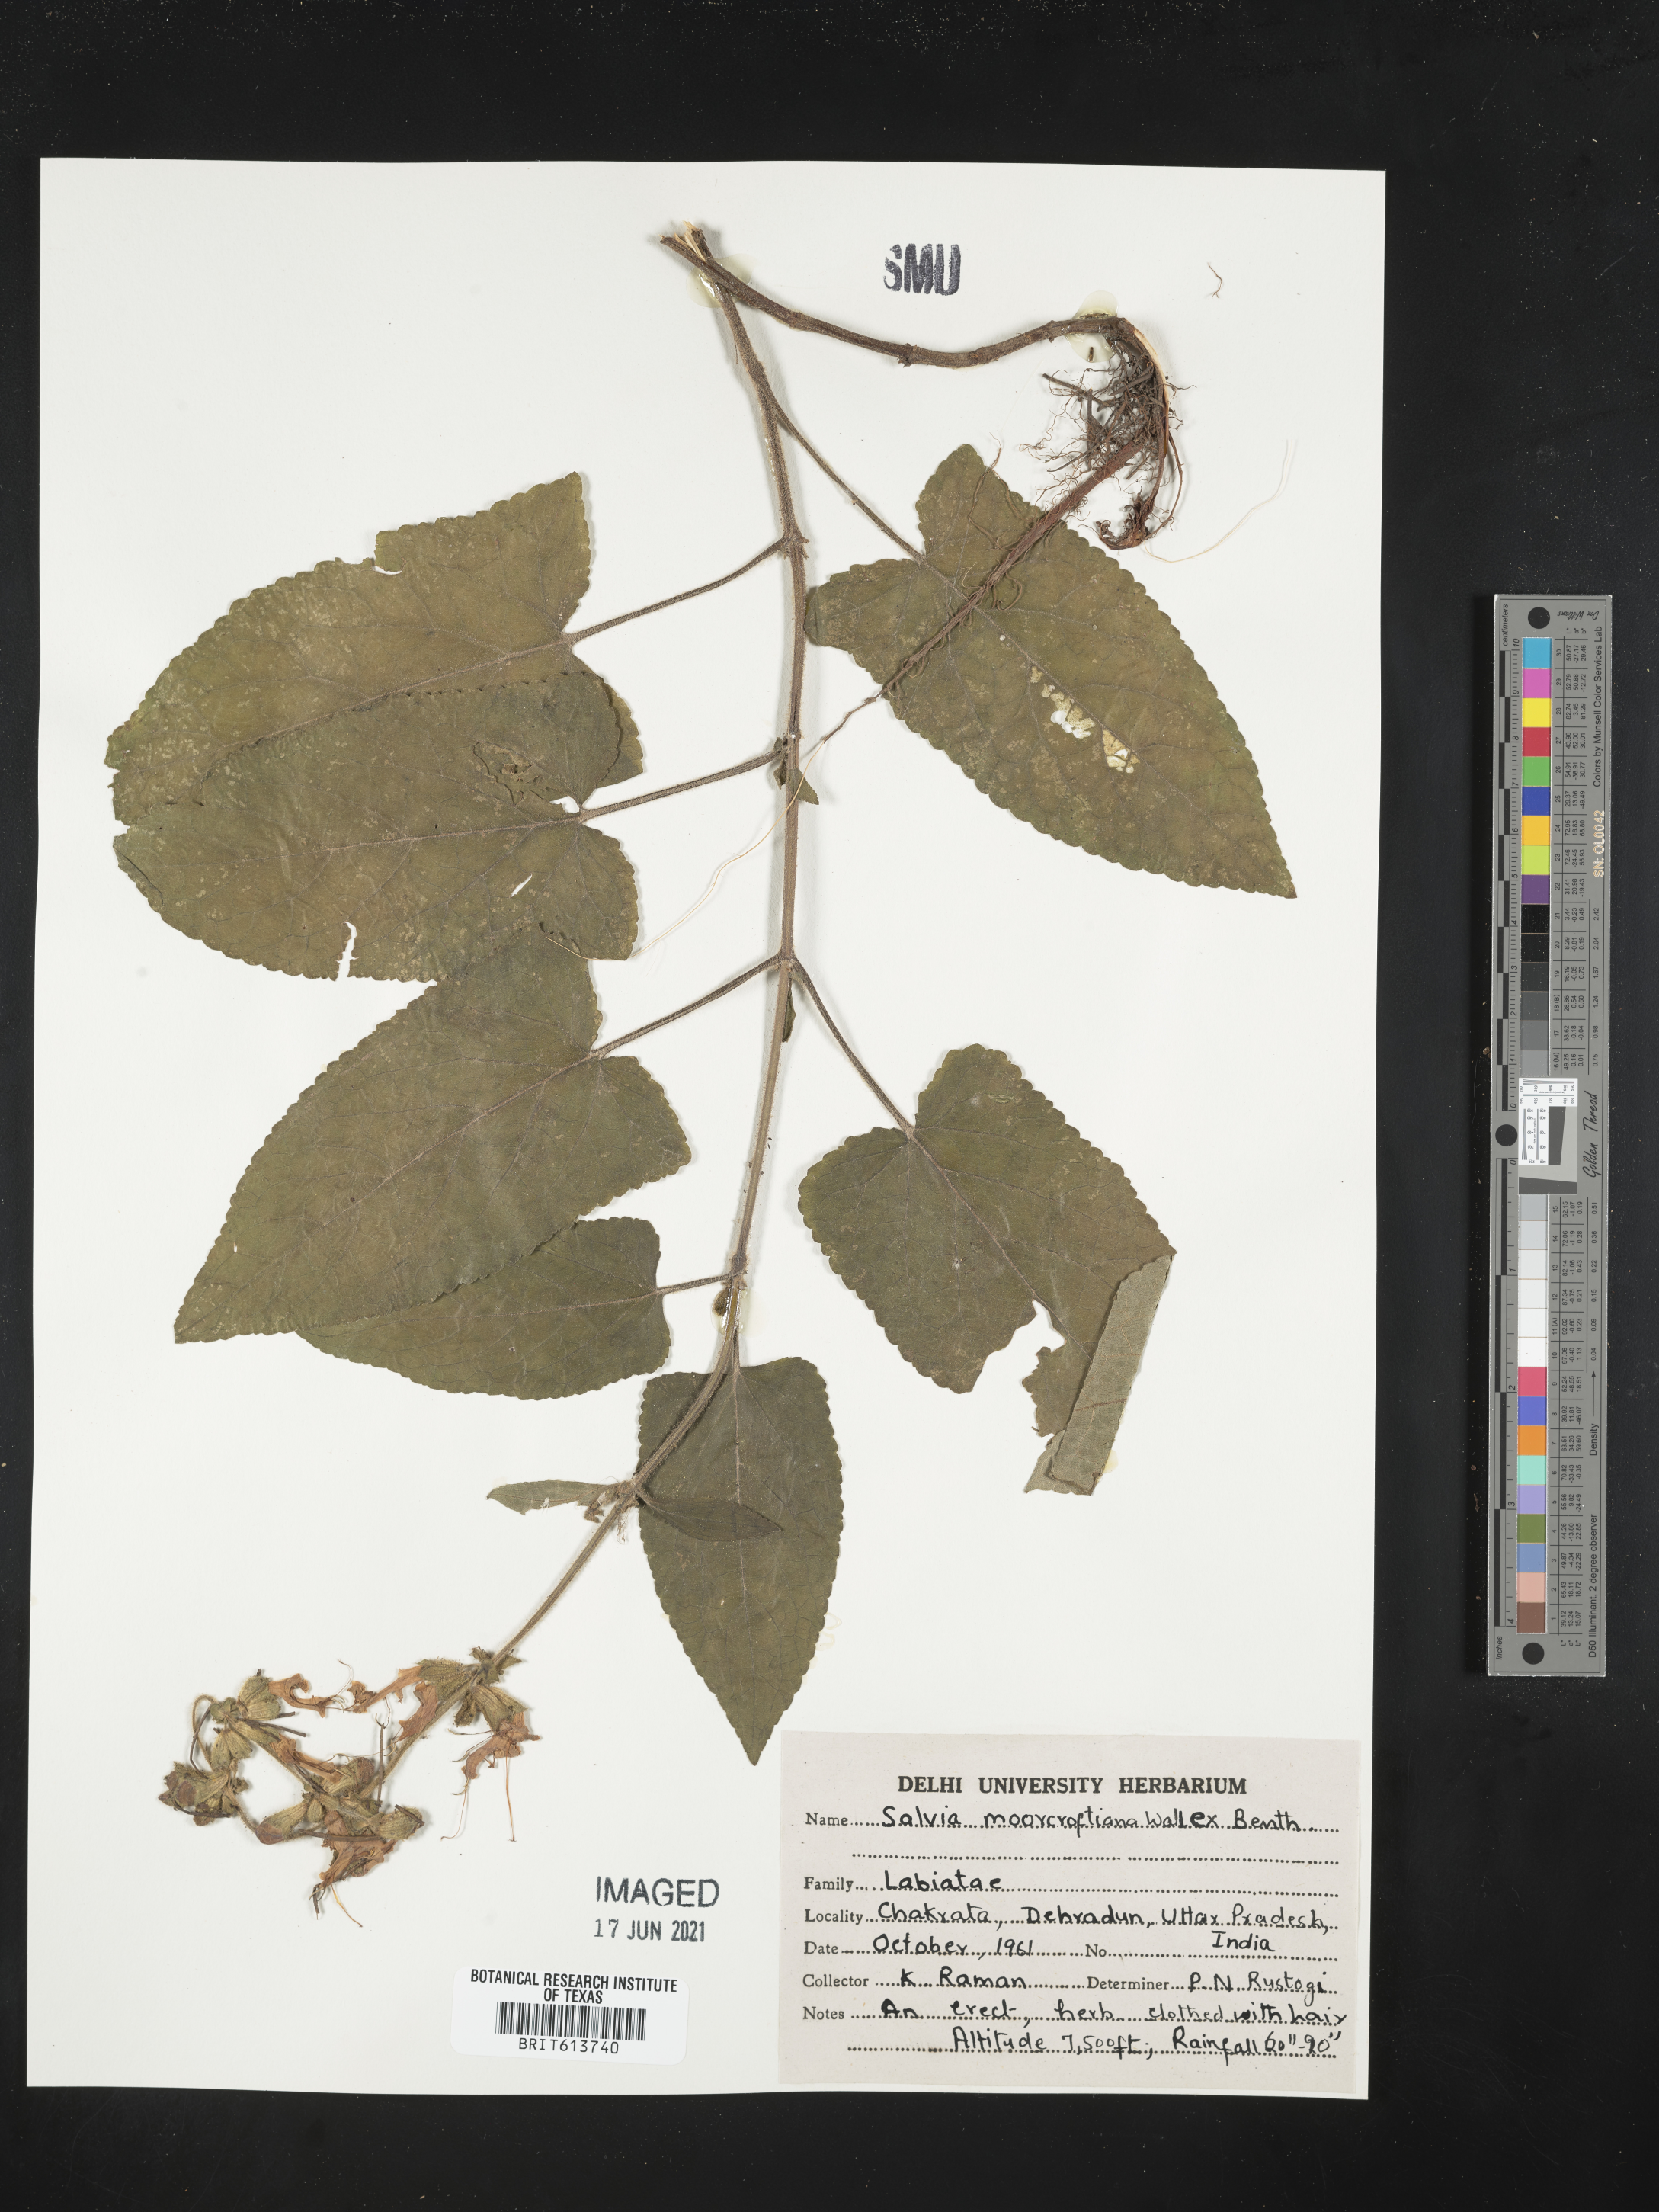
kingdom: Plantae
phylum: Tracheophyta
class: Magnoliopsida
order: Lamiales
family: Lamiaceae
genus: Salvia
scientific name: Salvia moorcroftiana
